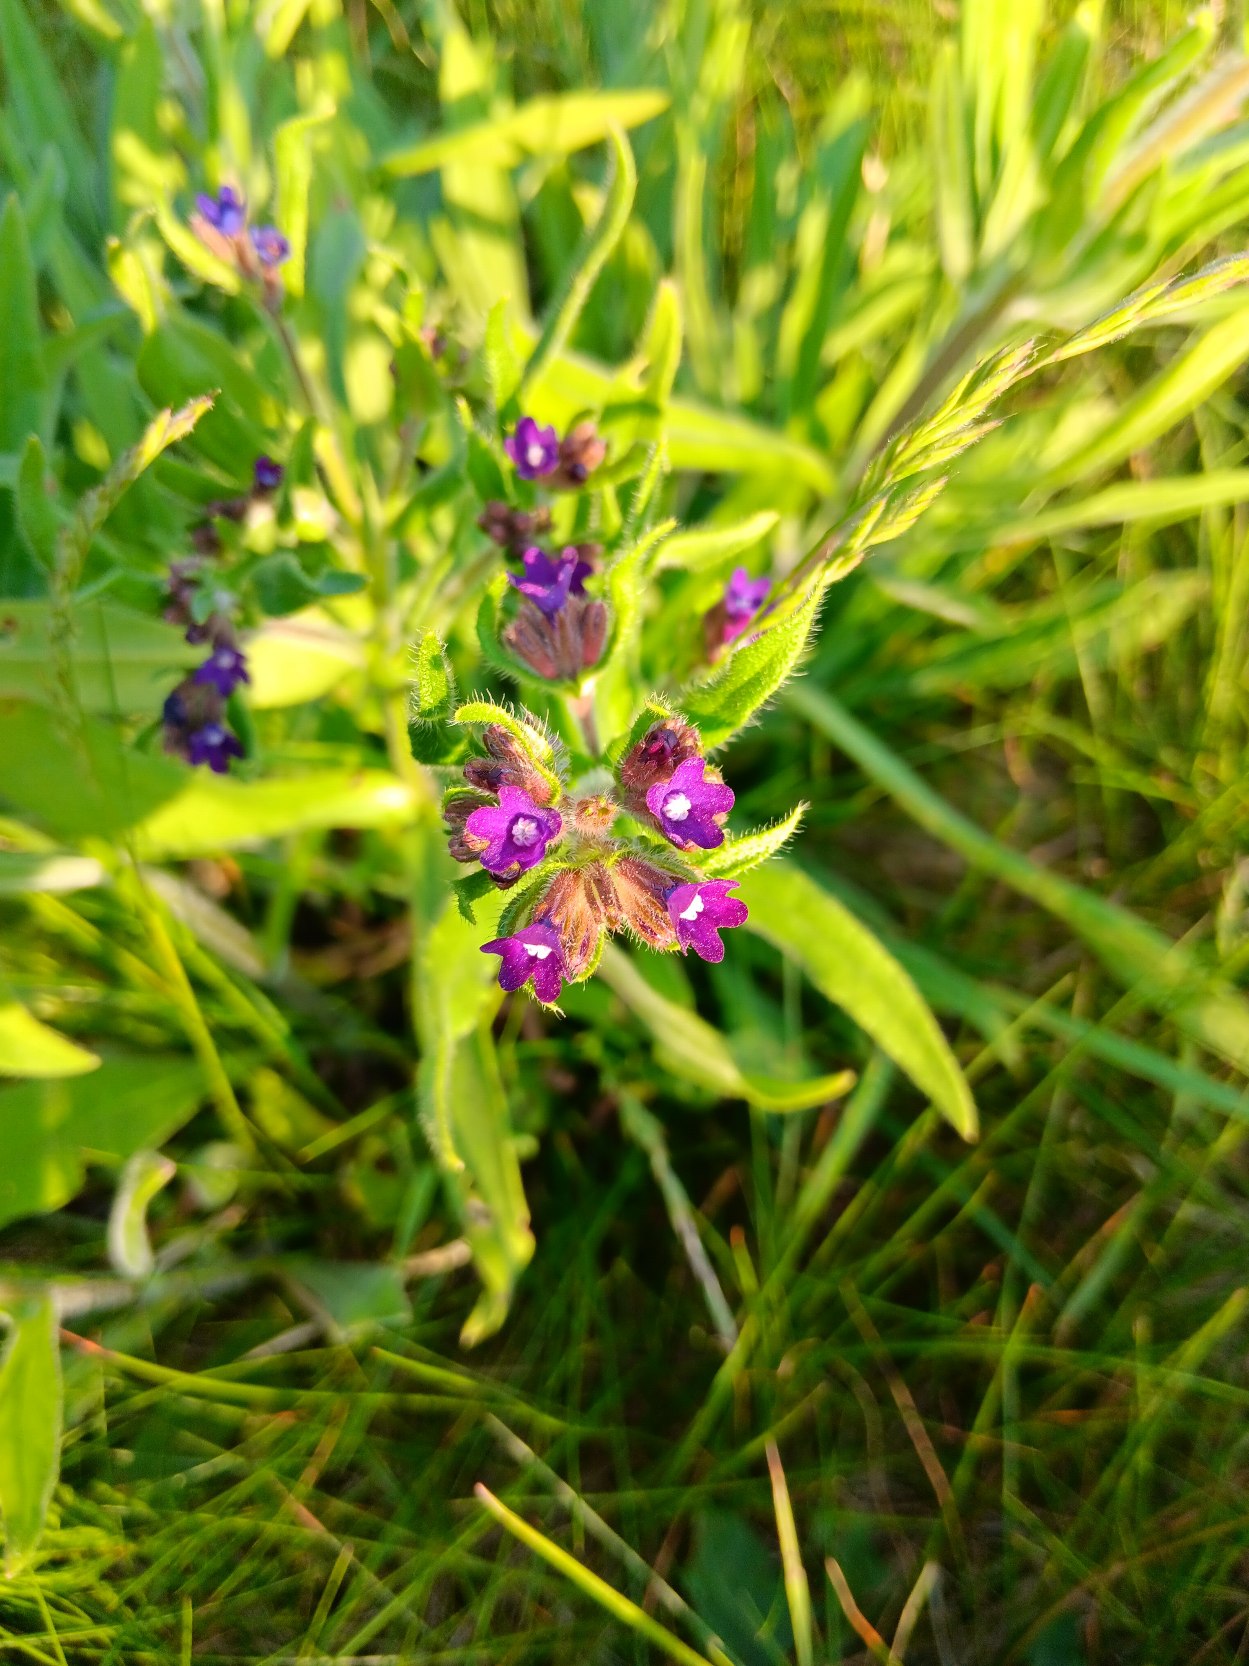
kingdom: Plantae
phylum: Tracheophyta
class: Magnoliopsida
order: Boraginales
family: Boraginaceae
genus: Anchusa
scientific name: Anchusa officinalis
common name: Læge-oksetunge
